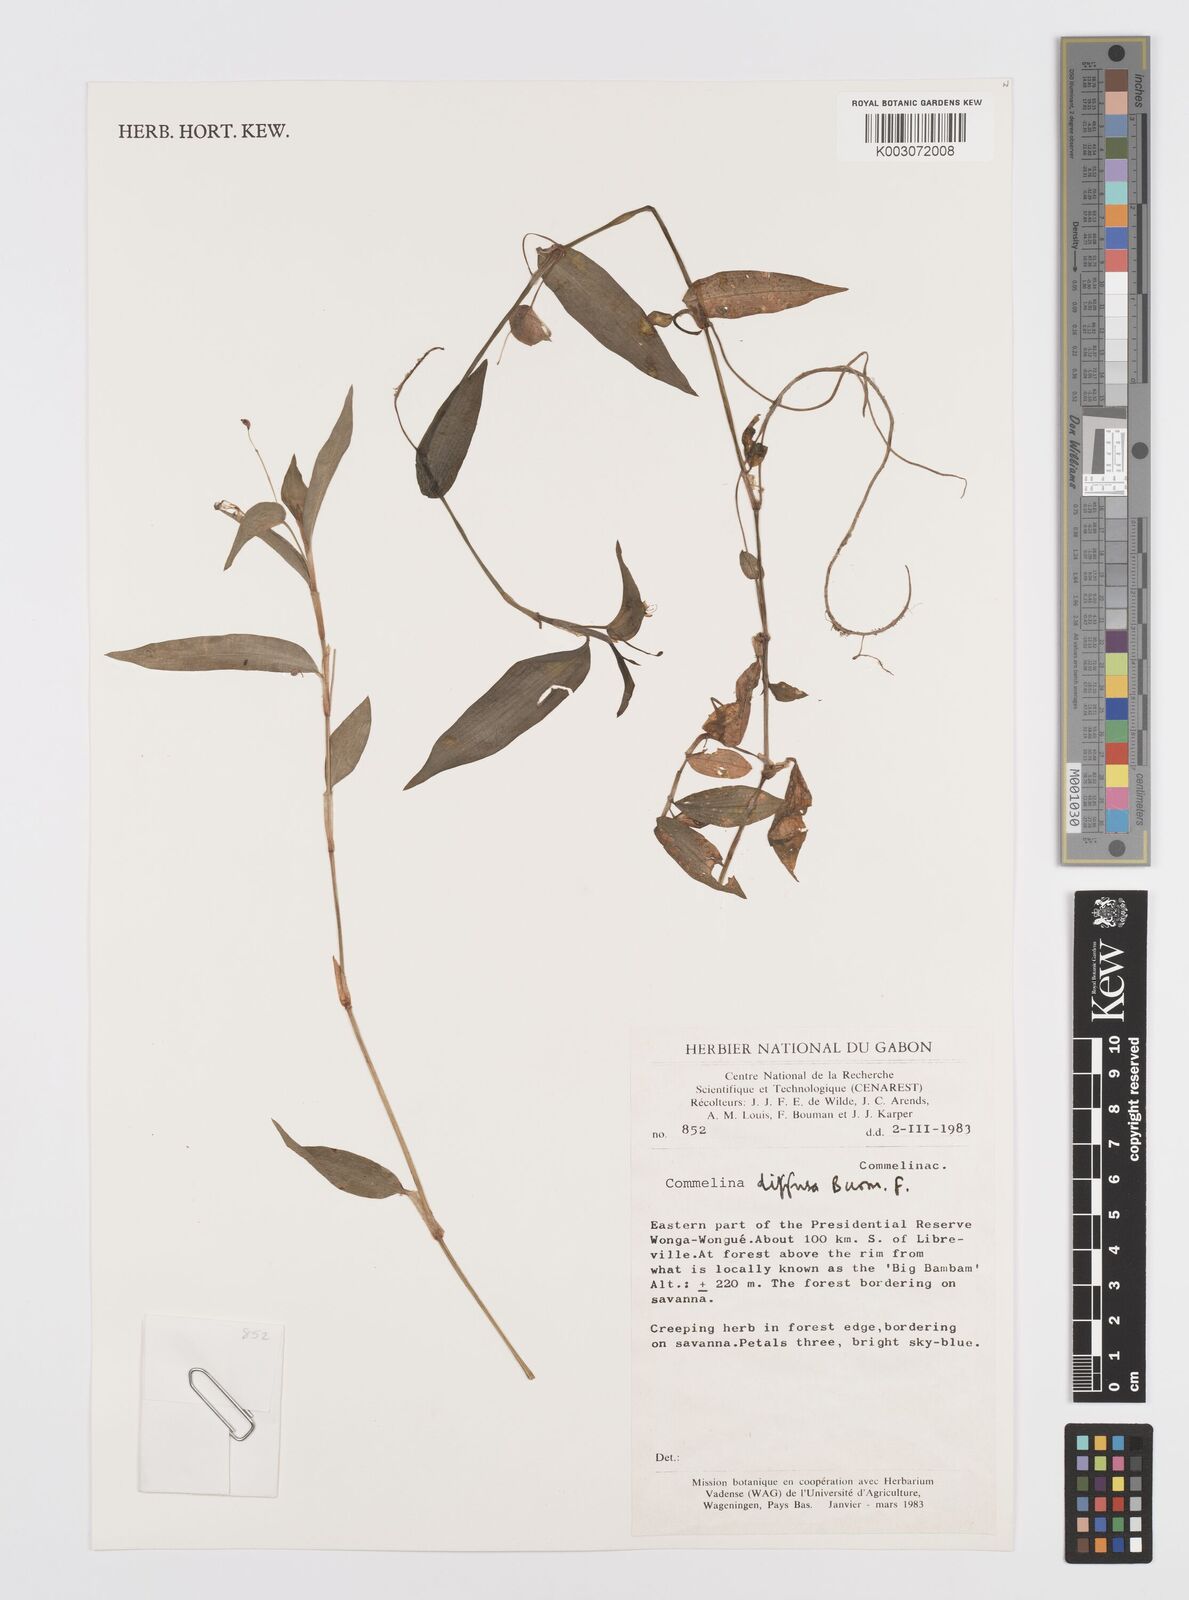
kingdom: Plantae
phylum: Tracheophyta
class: Liliopsida
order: Commelinales
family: Commelinaceae
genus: Commelina
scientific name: Commelina diffusa
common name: Climbing dayflower
